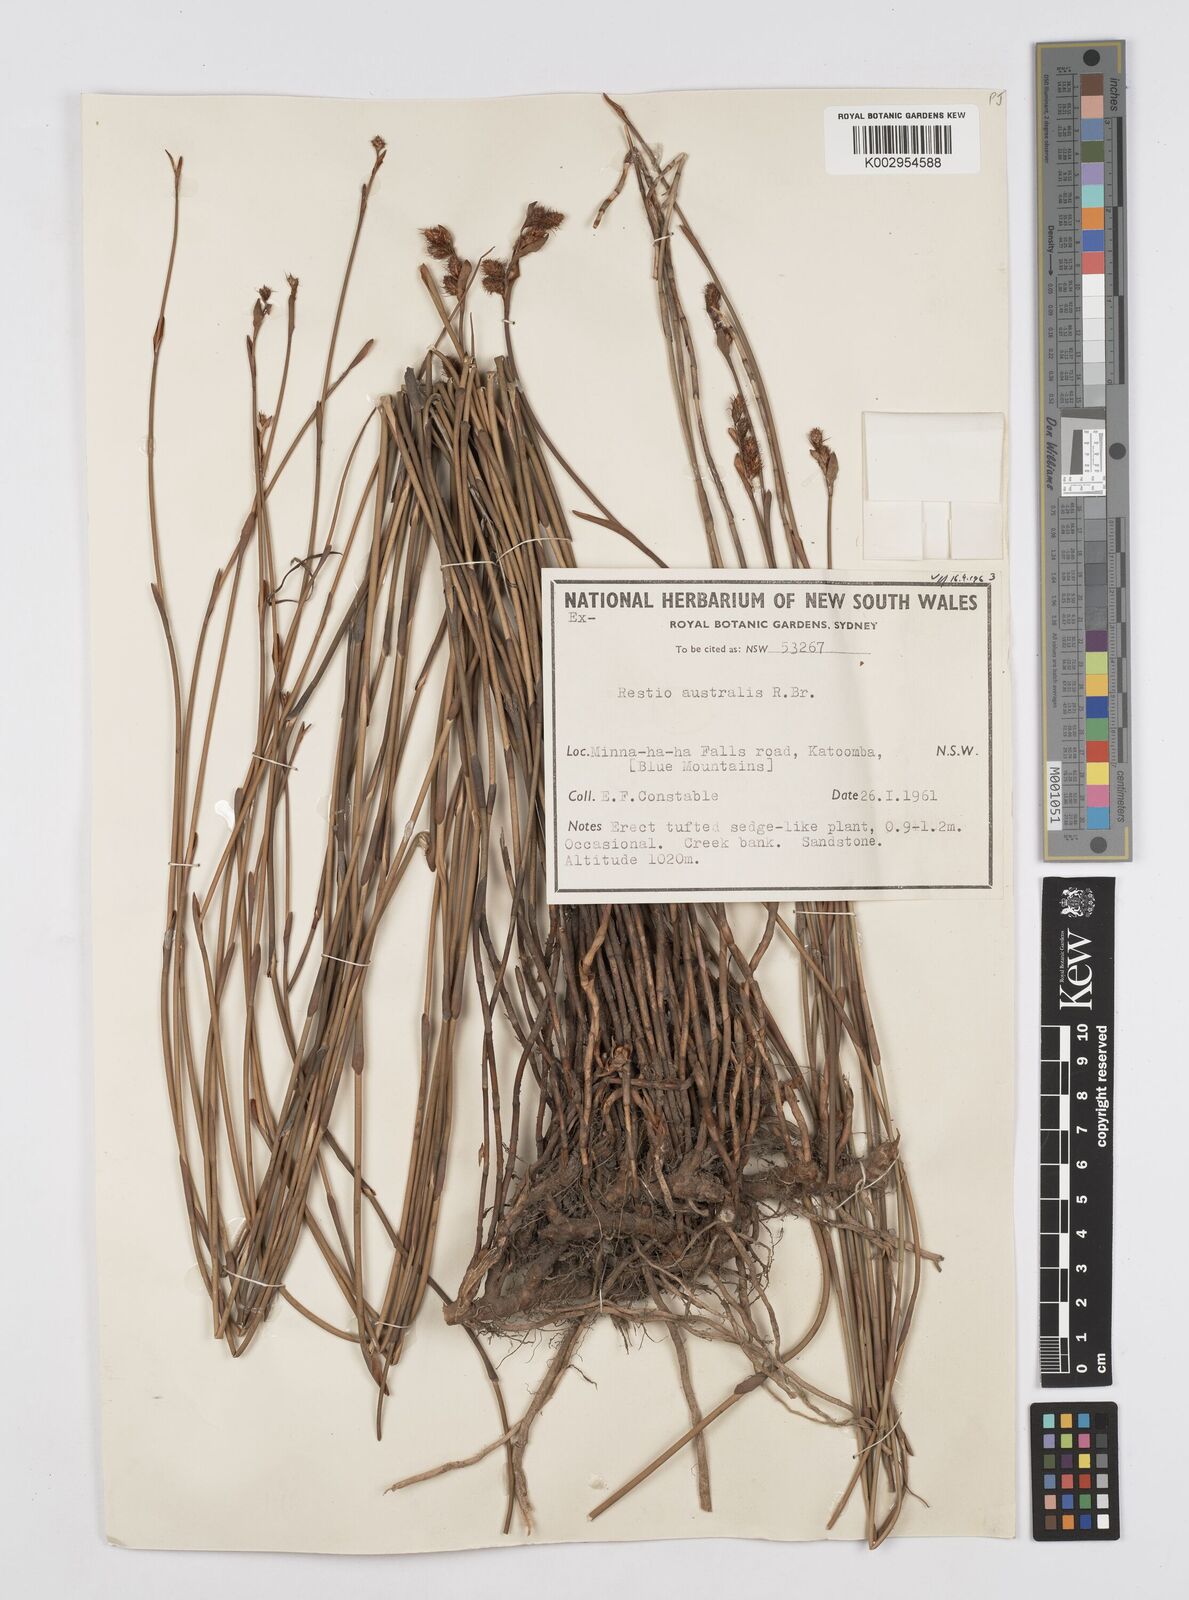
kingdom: Plantae
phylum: Tracheophyta
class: Liliopsida
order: Poales
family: Restionaceae
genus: Baloskion
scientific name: Baloskion australe
